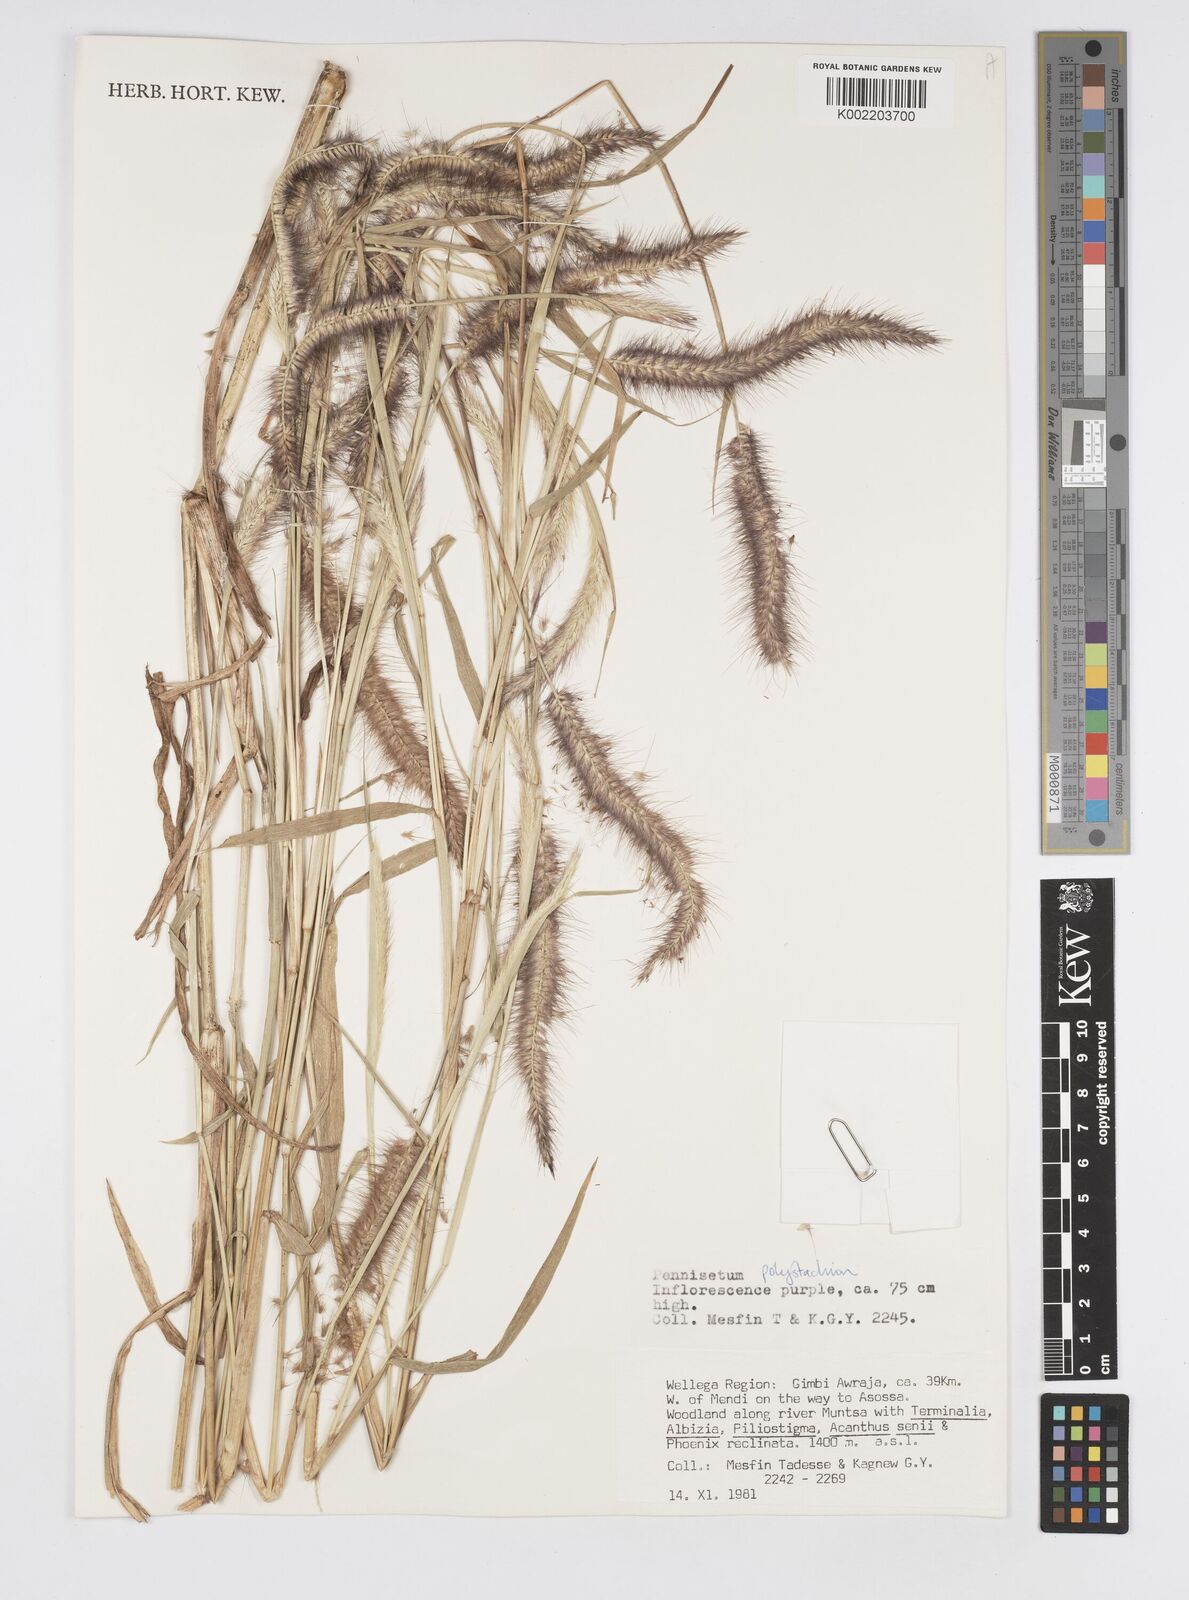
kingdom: Plantae
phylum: Tracheophyta
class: Liliopsida
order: Poales
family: Poaceae
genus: Setaria
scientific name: Setaria parviflora
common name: Knotroot bristle-grass
